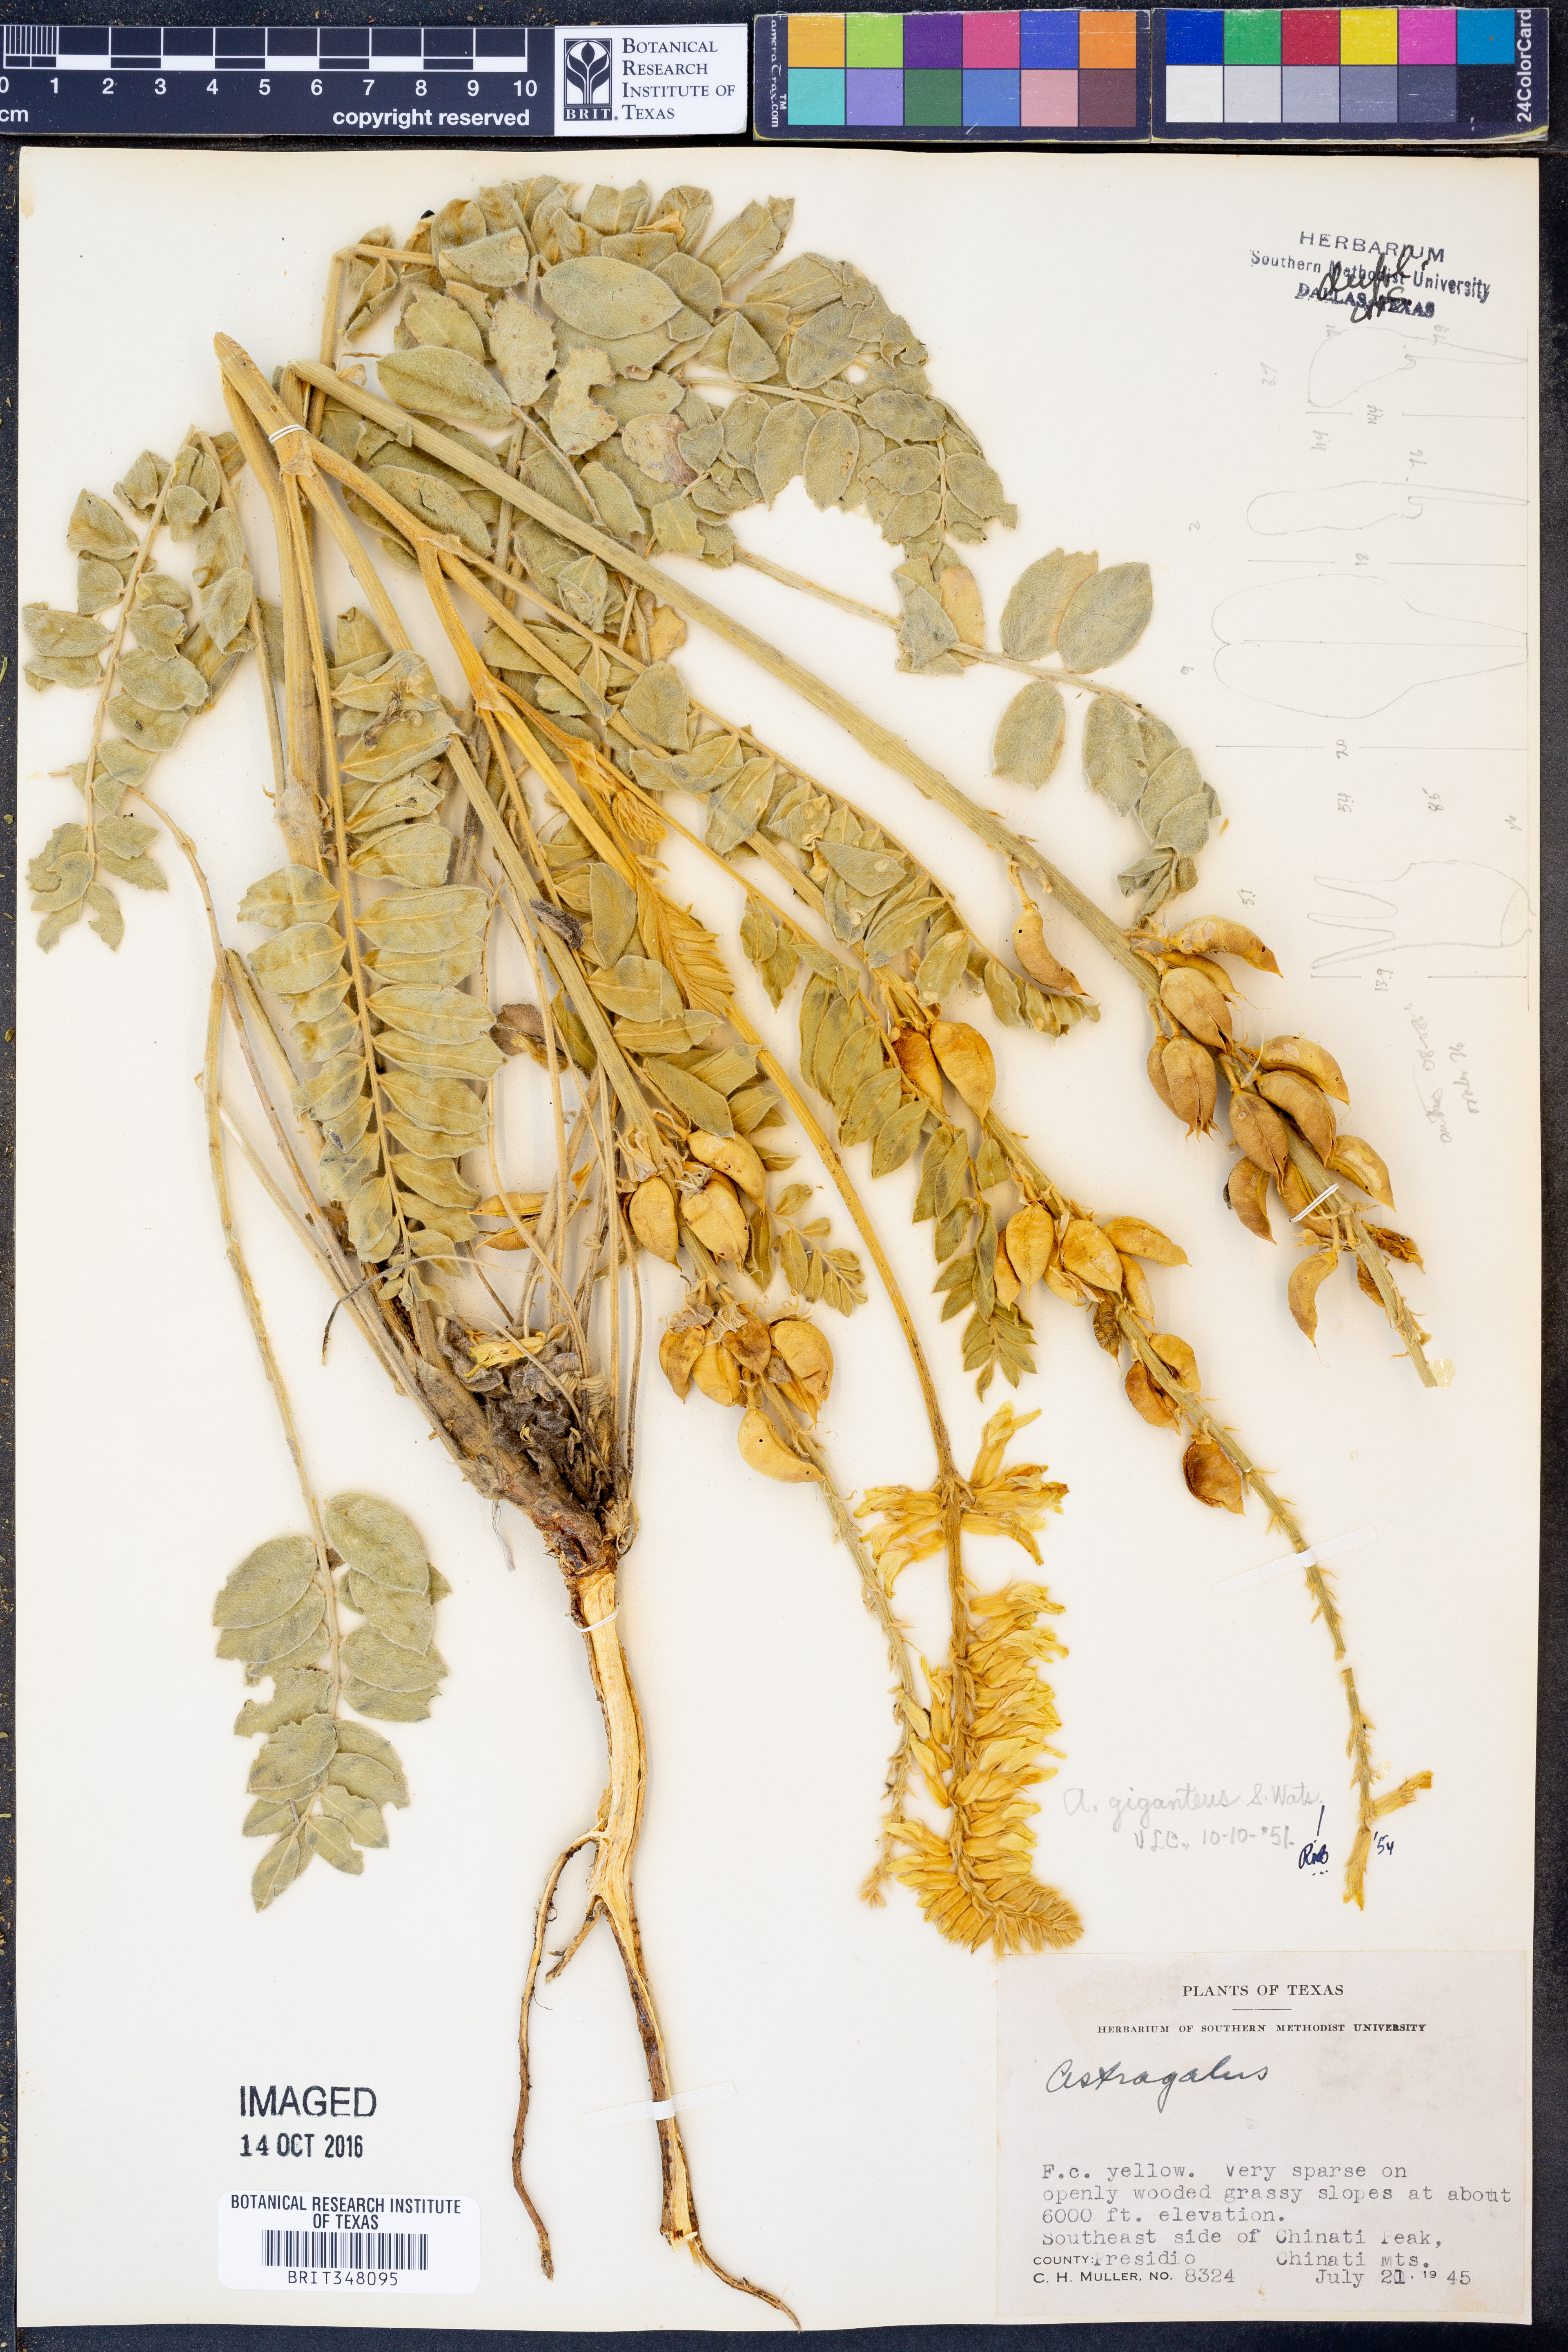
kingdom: Plantae
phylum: Tracheophyta
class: Magnoliopsida
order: Fabales
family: Fabaceae
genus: Astragalus
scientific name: Astragalus giganteus
